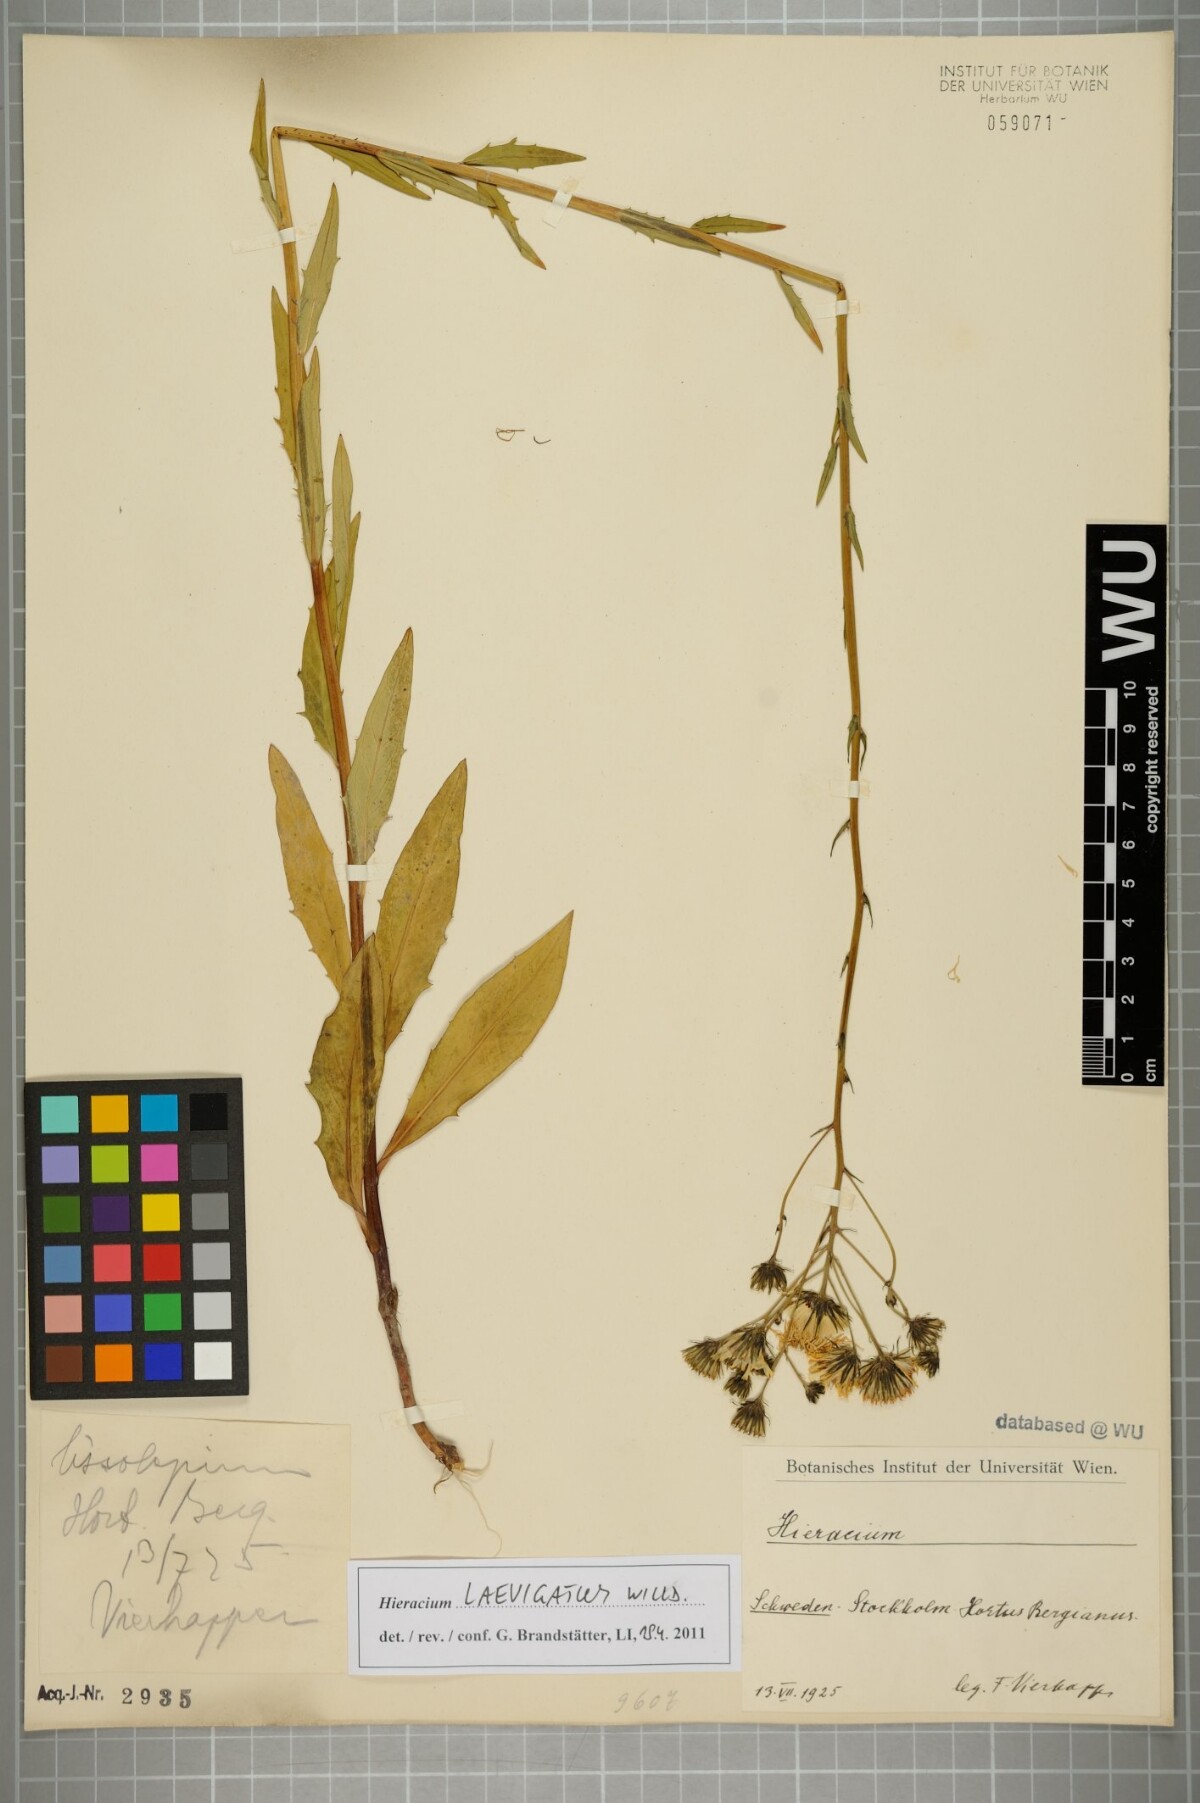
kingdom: Plantae
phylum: Tracheophyta
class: Magnoliopsida
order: Asterales
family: Asteraceae
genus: Hieracium
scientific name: Hieracium laevigatum
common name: Smooth hawkweed
